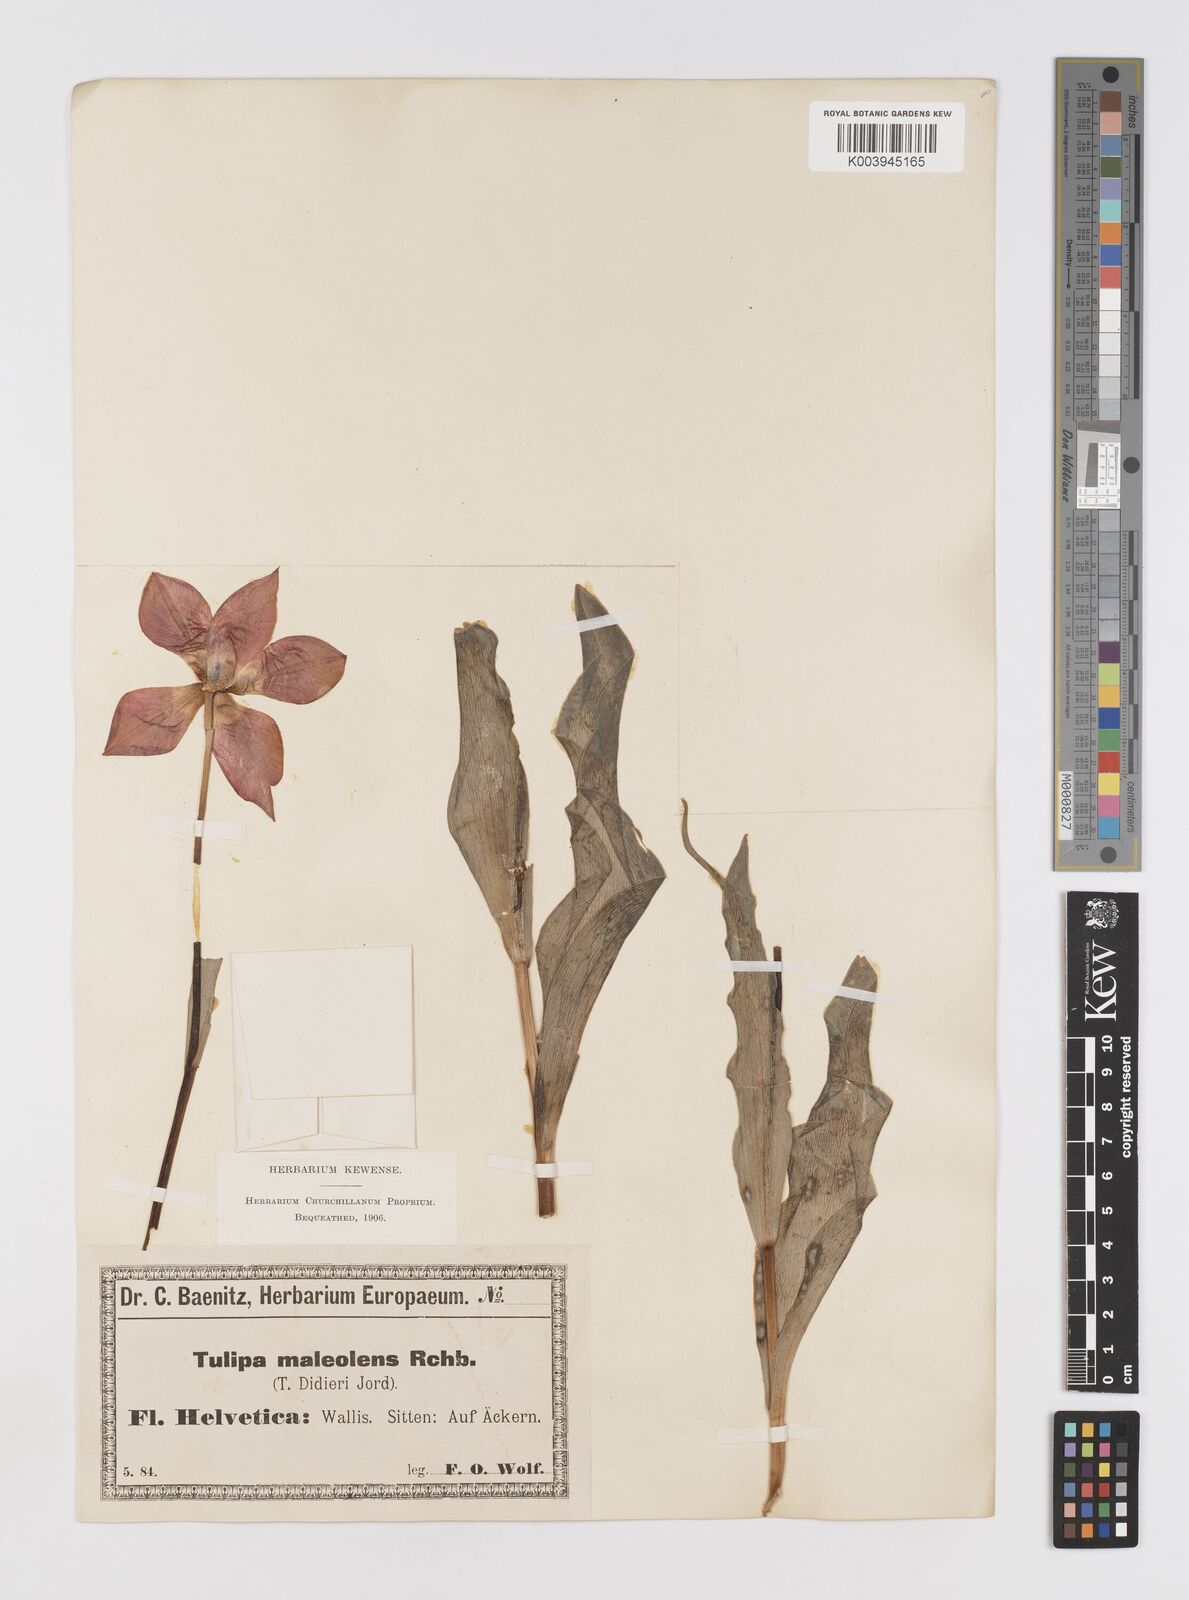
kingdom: Plantae
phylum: Tracheophyta
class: Liliopsida
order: Liliales
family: Liliaceae
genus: Tulipa
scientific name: Tulipa gesneriana
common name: Garden tulip
